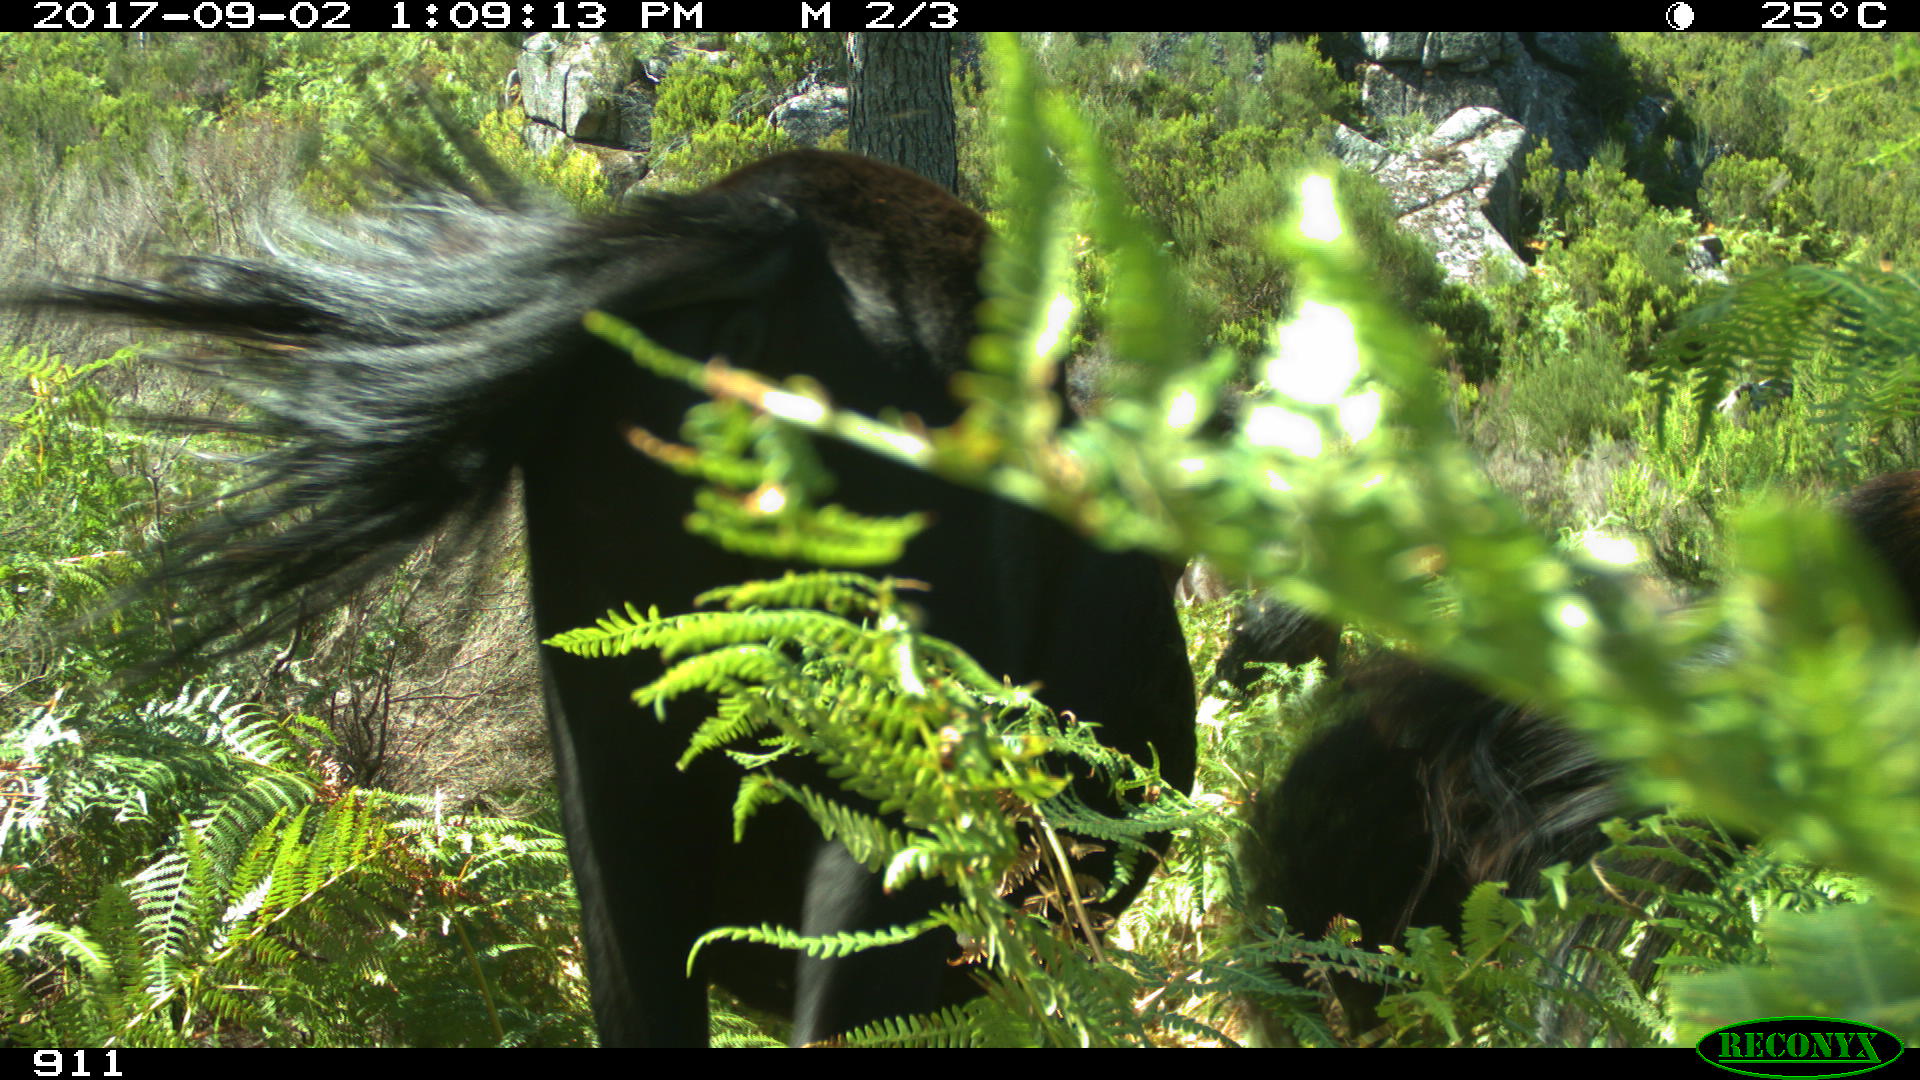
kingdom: Animalia
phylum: Chordata
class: Mammalia
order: Perissodactyla
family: Equidae
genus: Equus
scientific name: Equus caballus
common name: Horse
